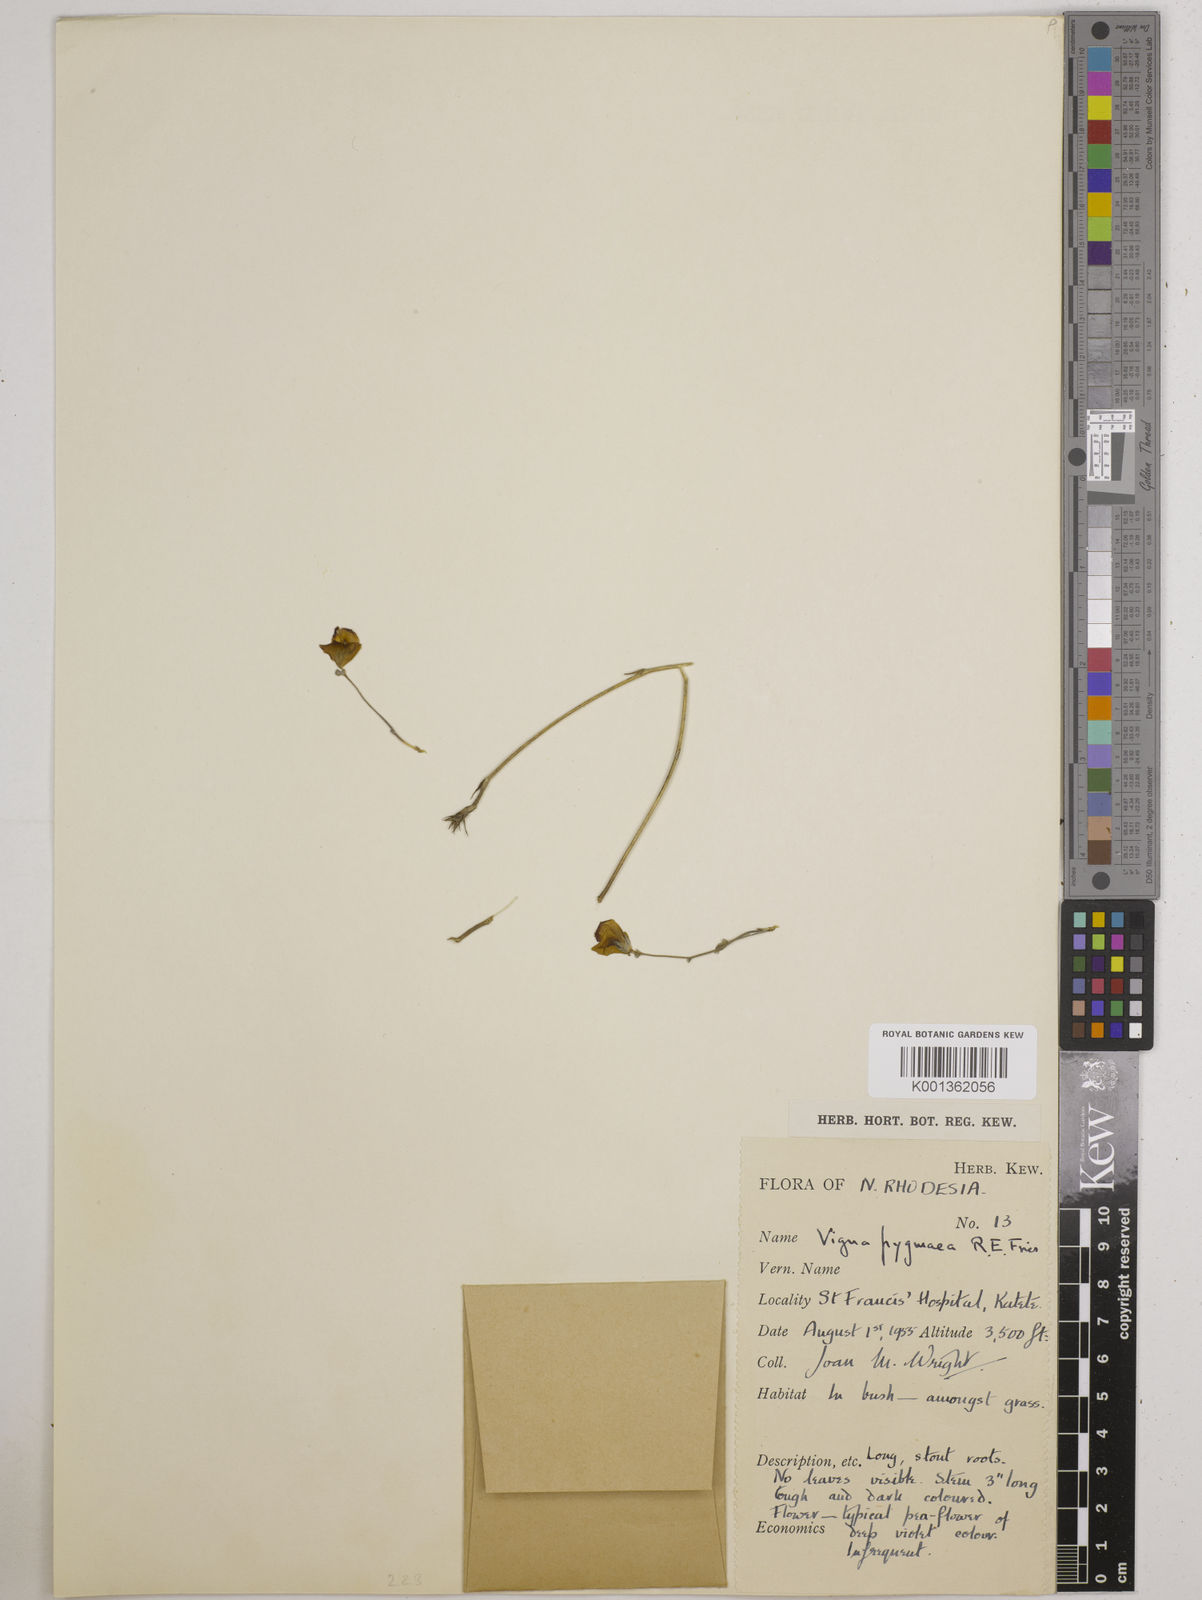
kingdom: Plantae
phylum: Tracheophyta
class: Magnoliopsida
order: Fabales
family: Fabaceae
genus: Vigna
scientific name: Vigna pygmaea
